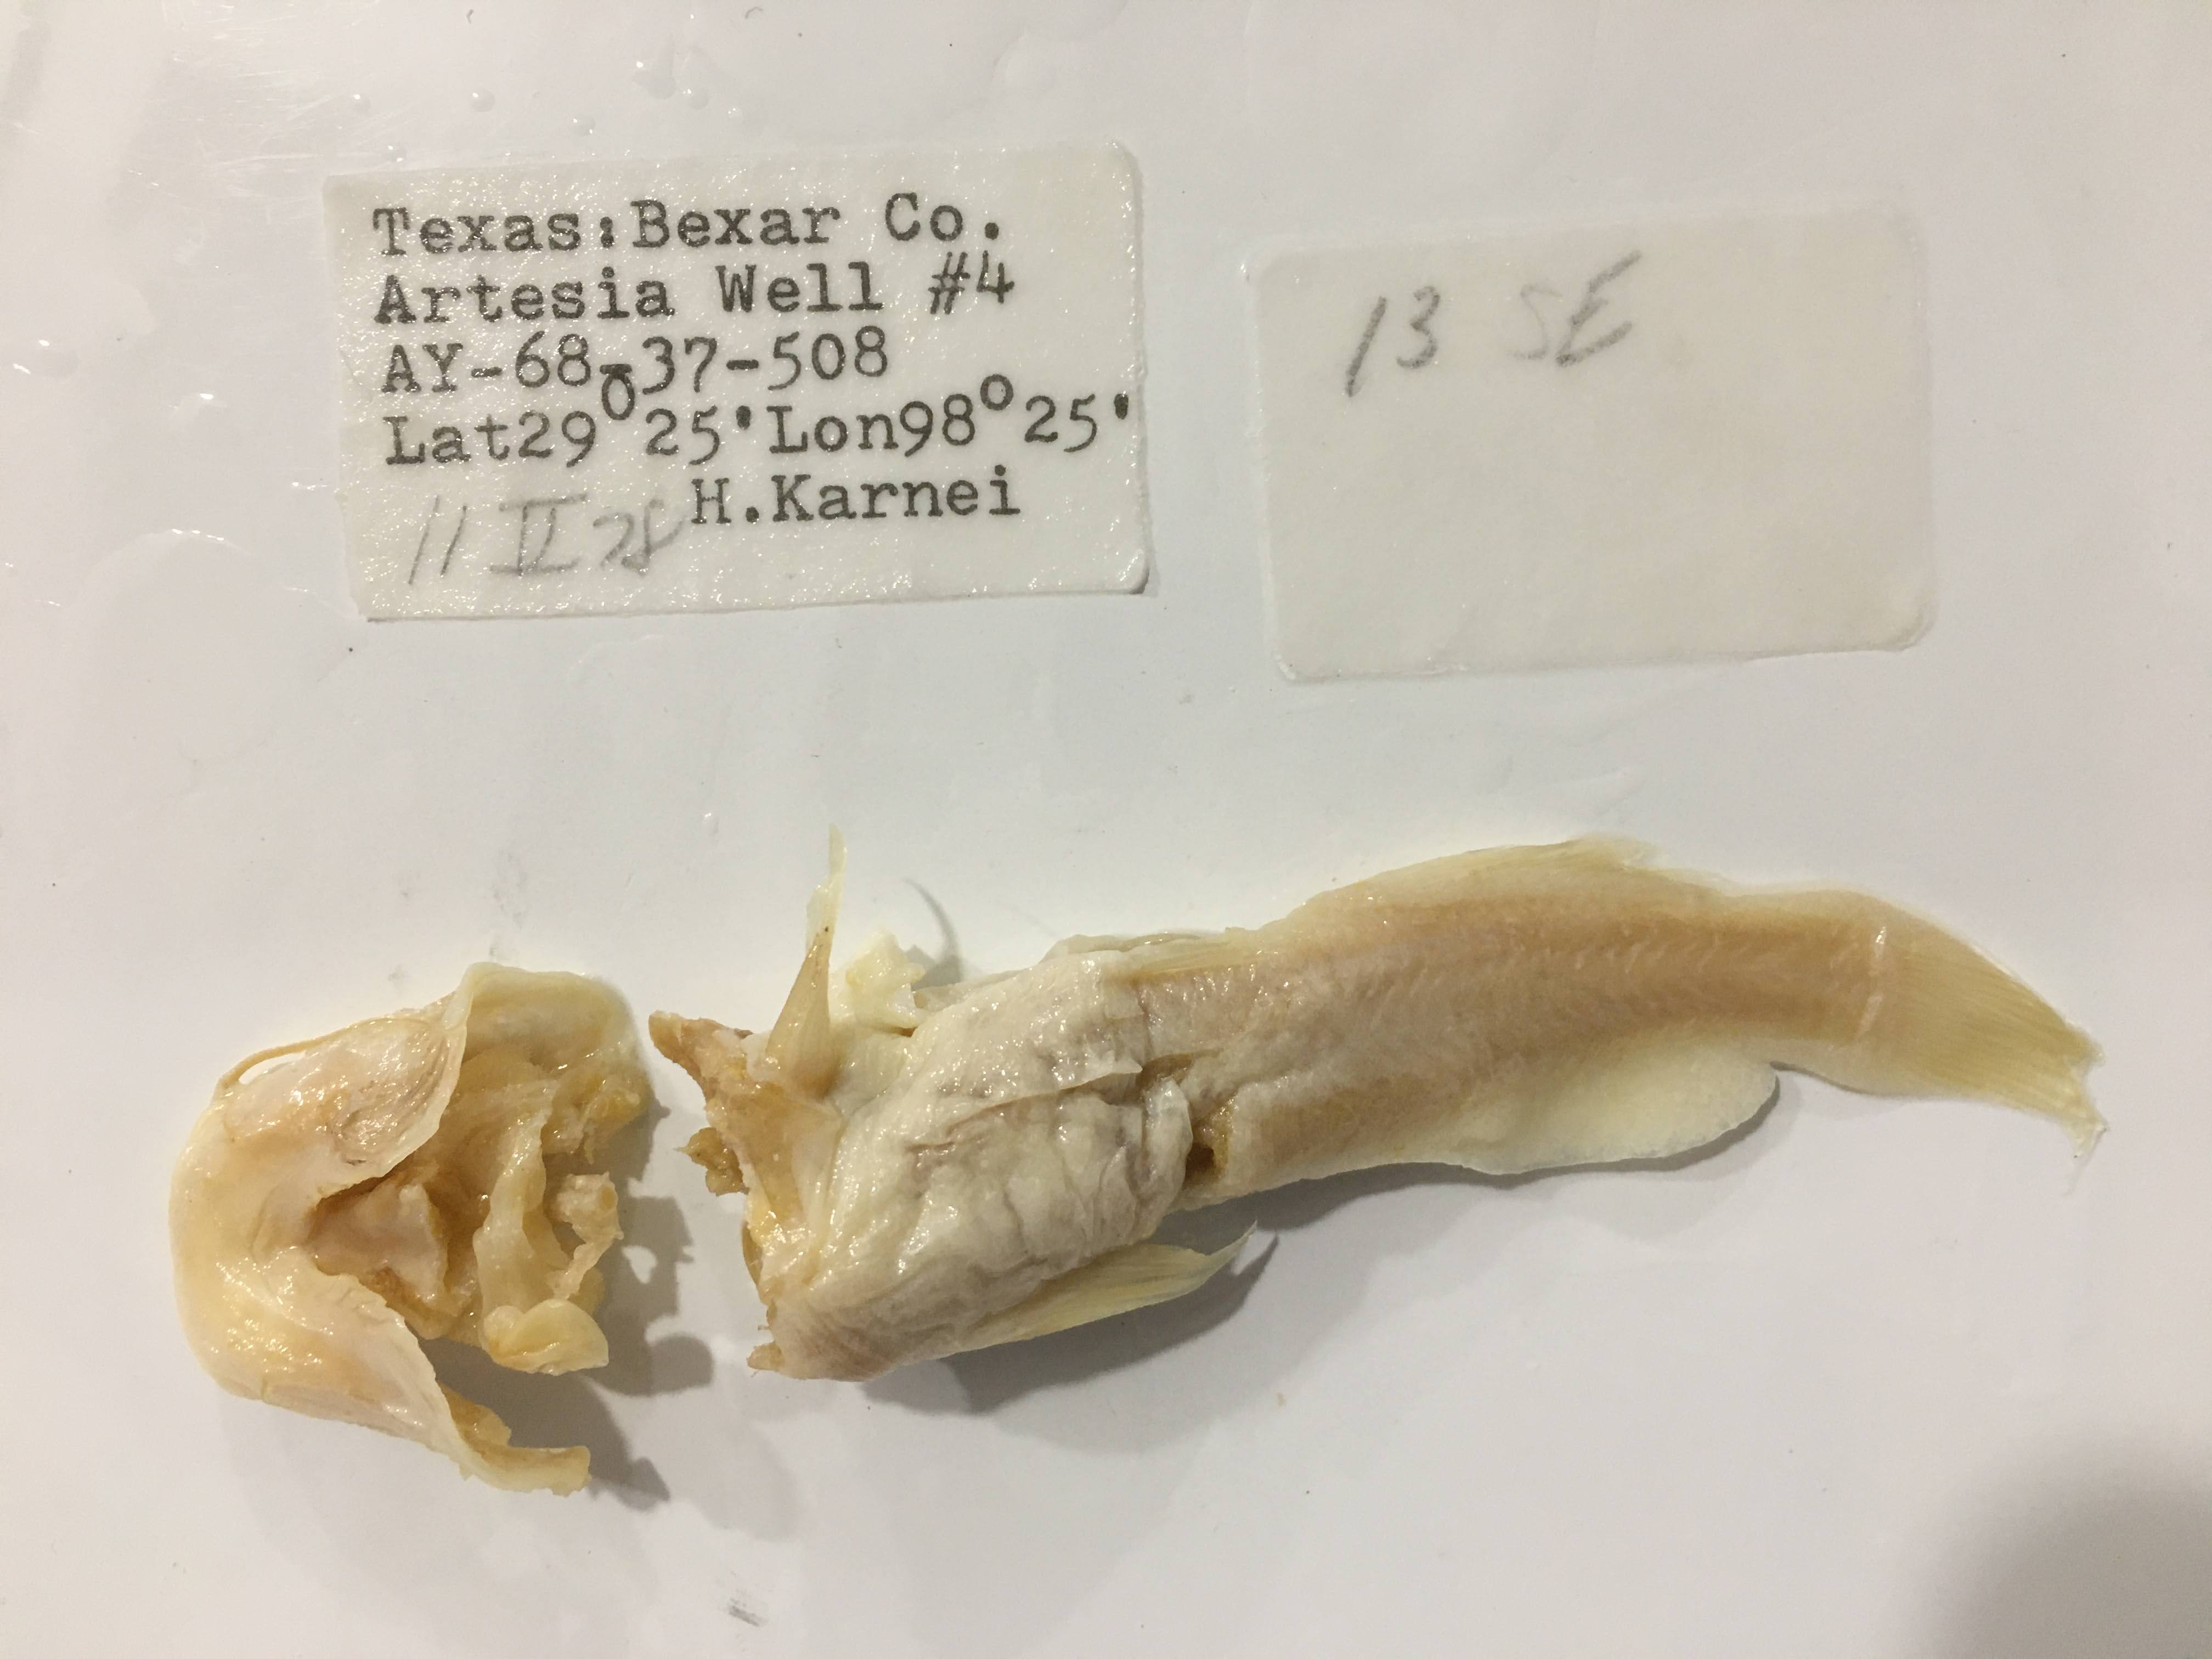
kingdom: Animalia
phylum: Chordata
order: Siluriformes
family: Ictaluridae
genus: Satan
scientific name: Satan eurystomus
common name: Widemouth blindcat
